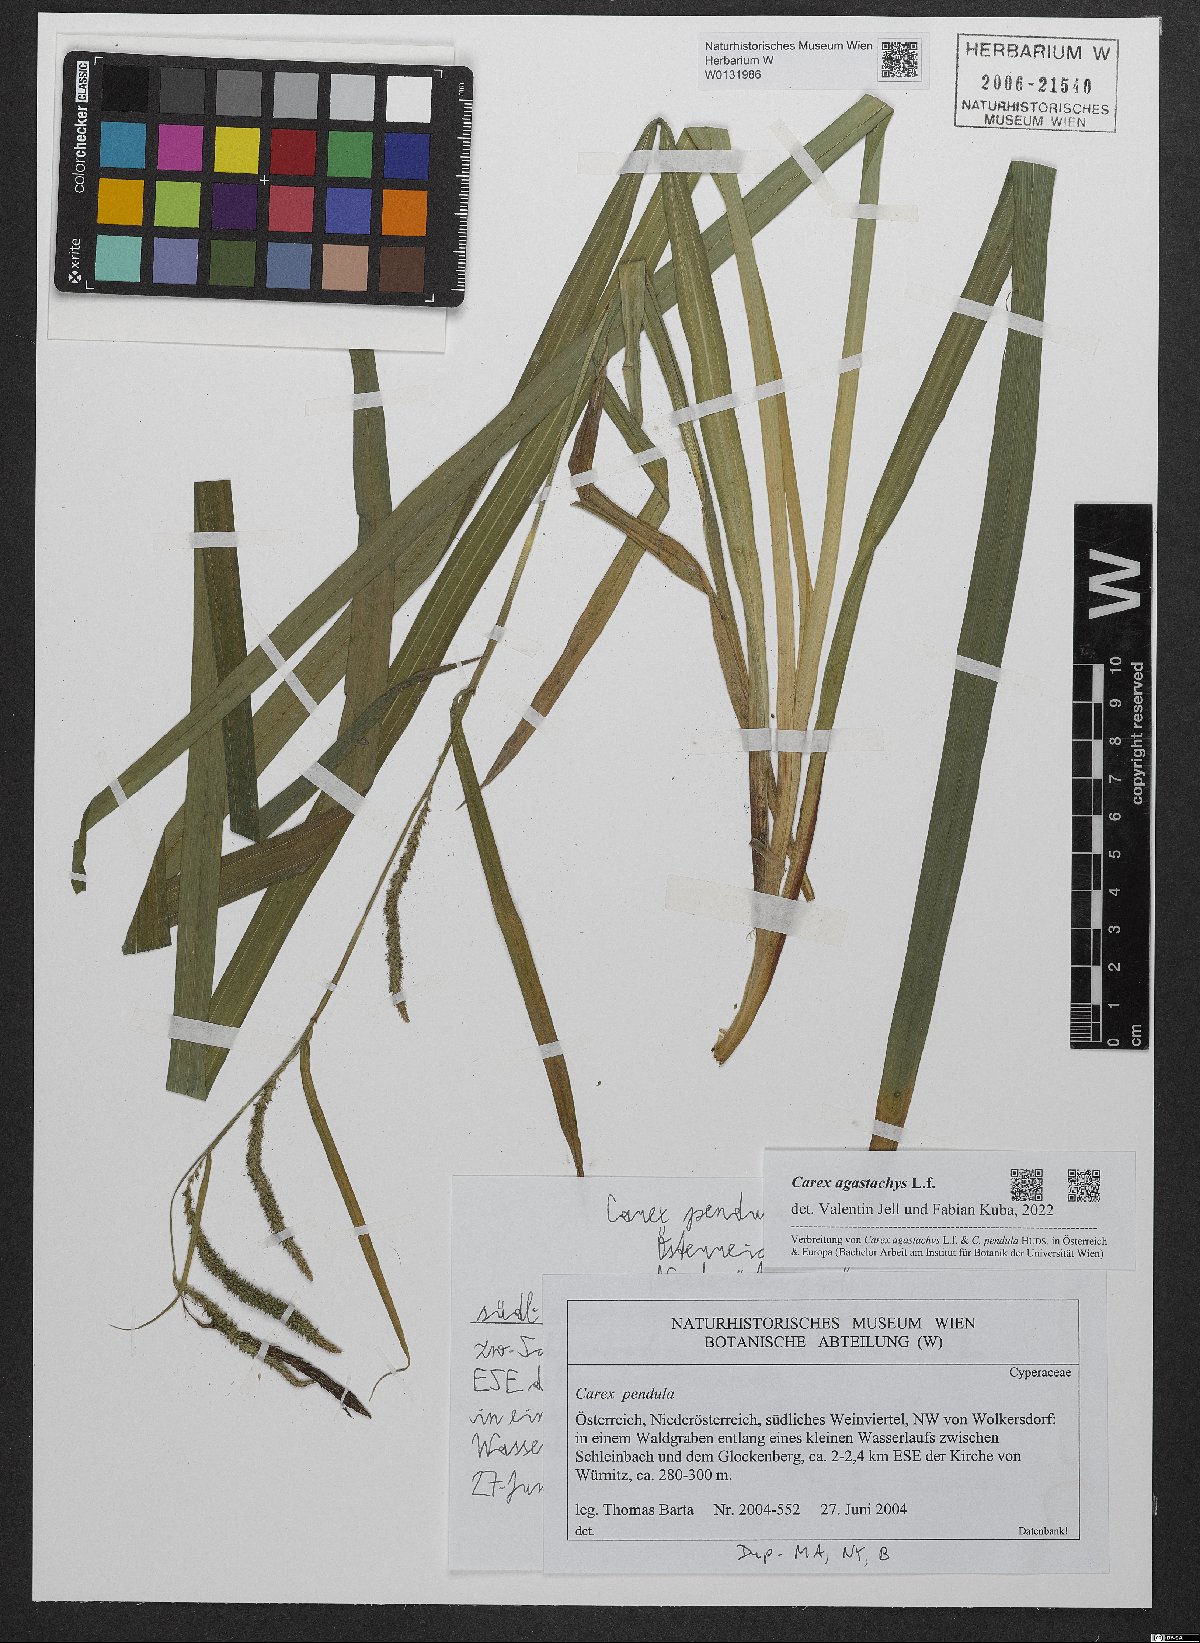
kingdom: Plantae
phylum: Tracheophyta
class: Liliopsida
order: Poales
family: Cyperaceae
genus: Carex
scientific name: Carex agastachys
